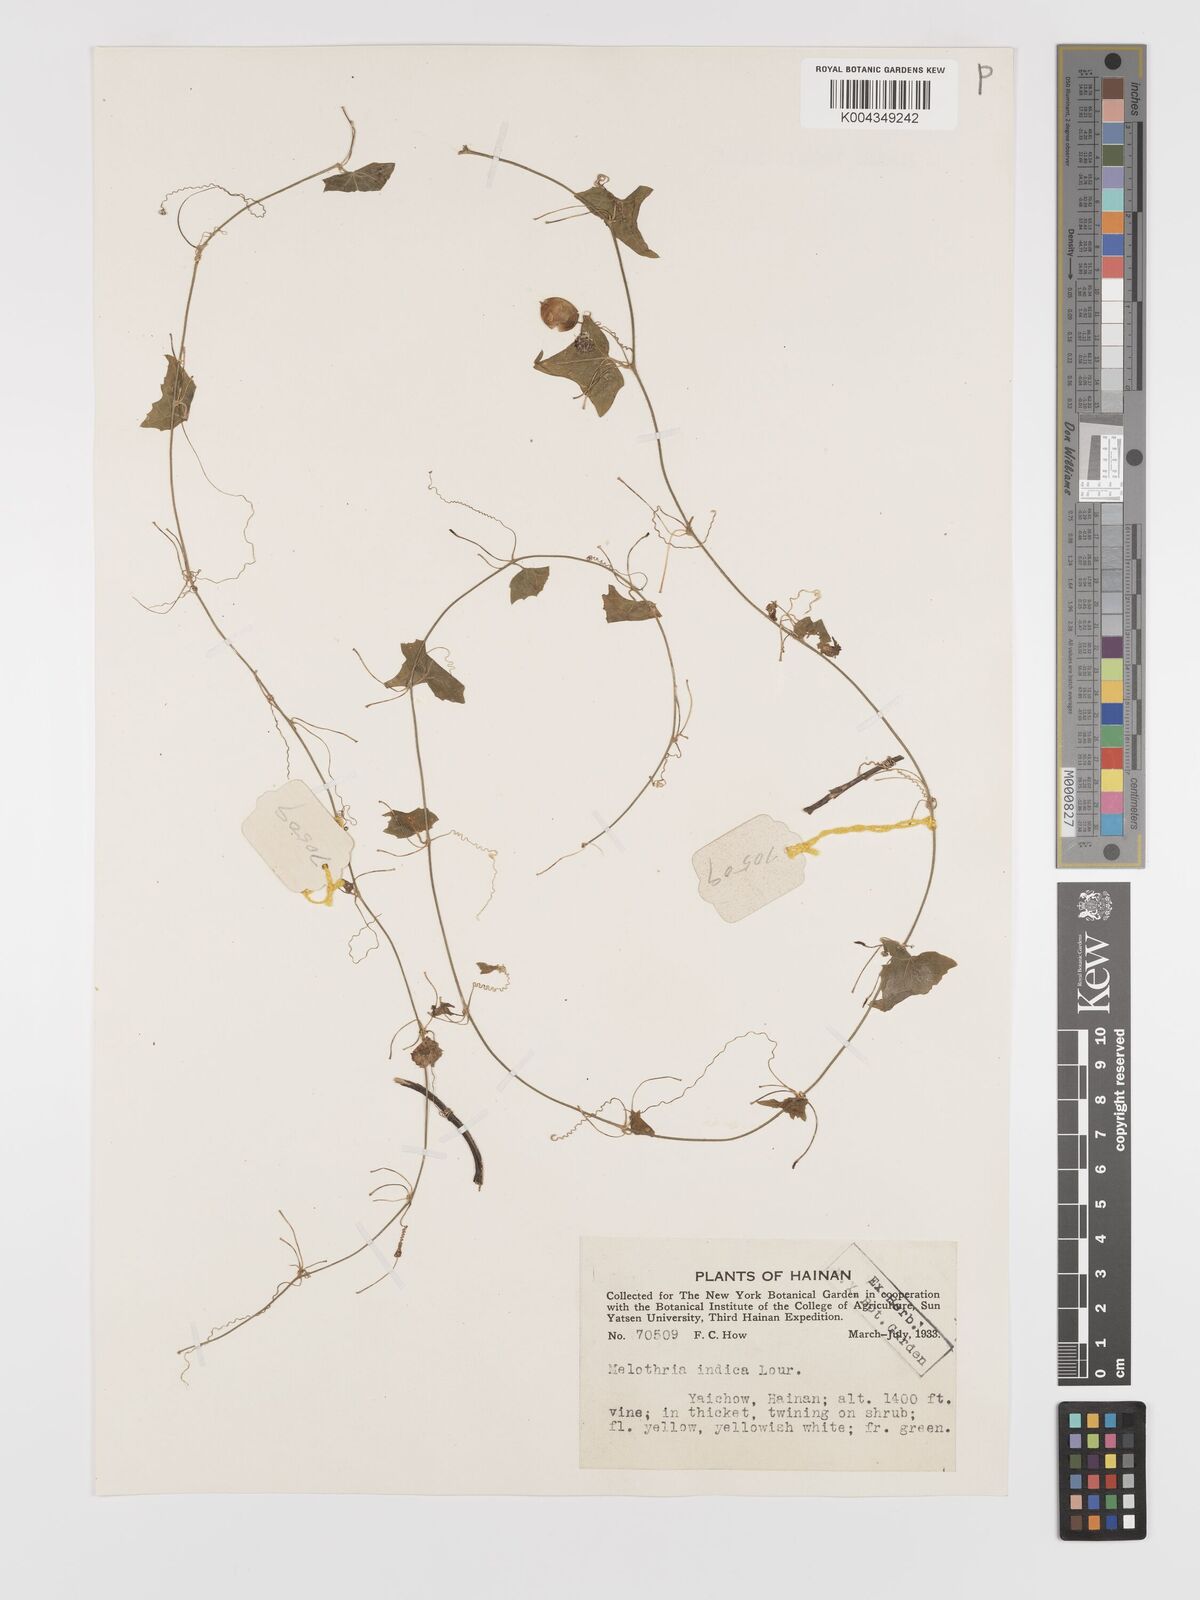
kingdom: Plantae
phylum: Tracheophyta
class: Magnoliopsida
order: Cucurbitales
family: Cucurbitaceae
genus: Zehneria
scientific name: Zehneria japonica
